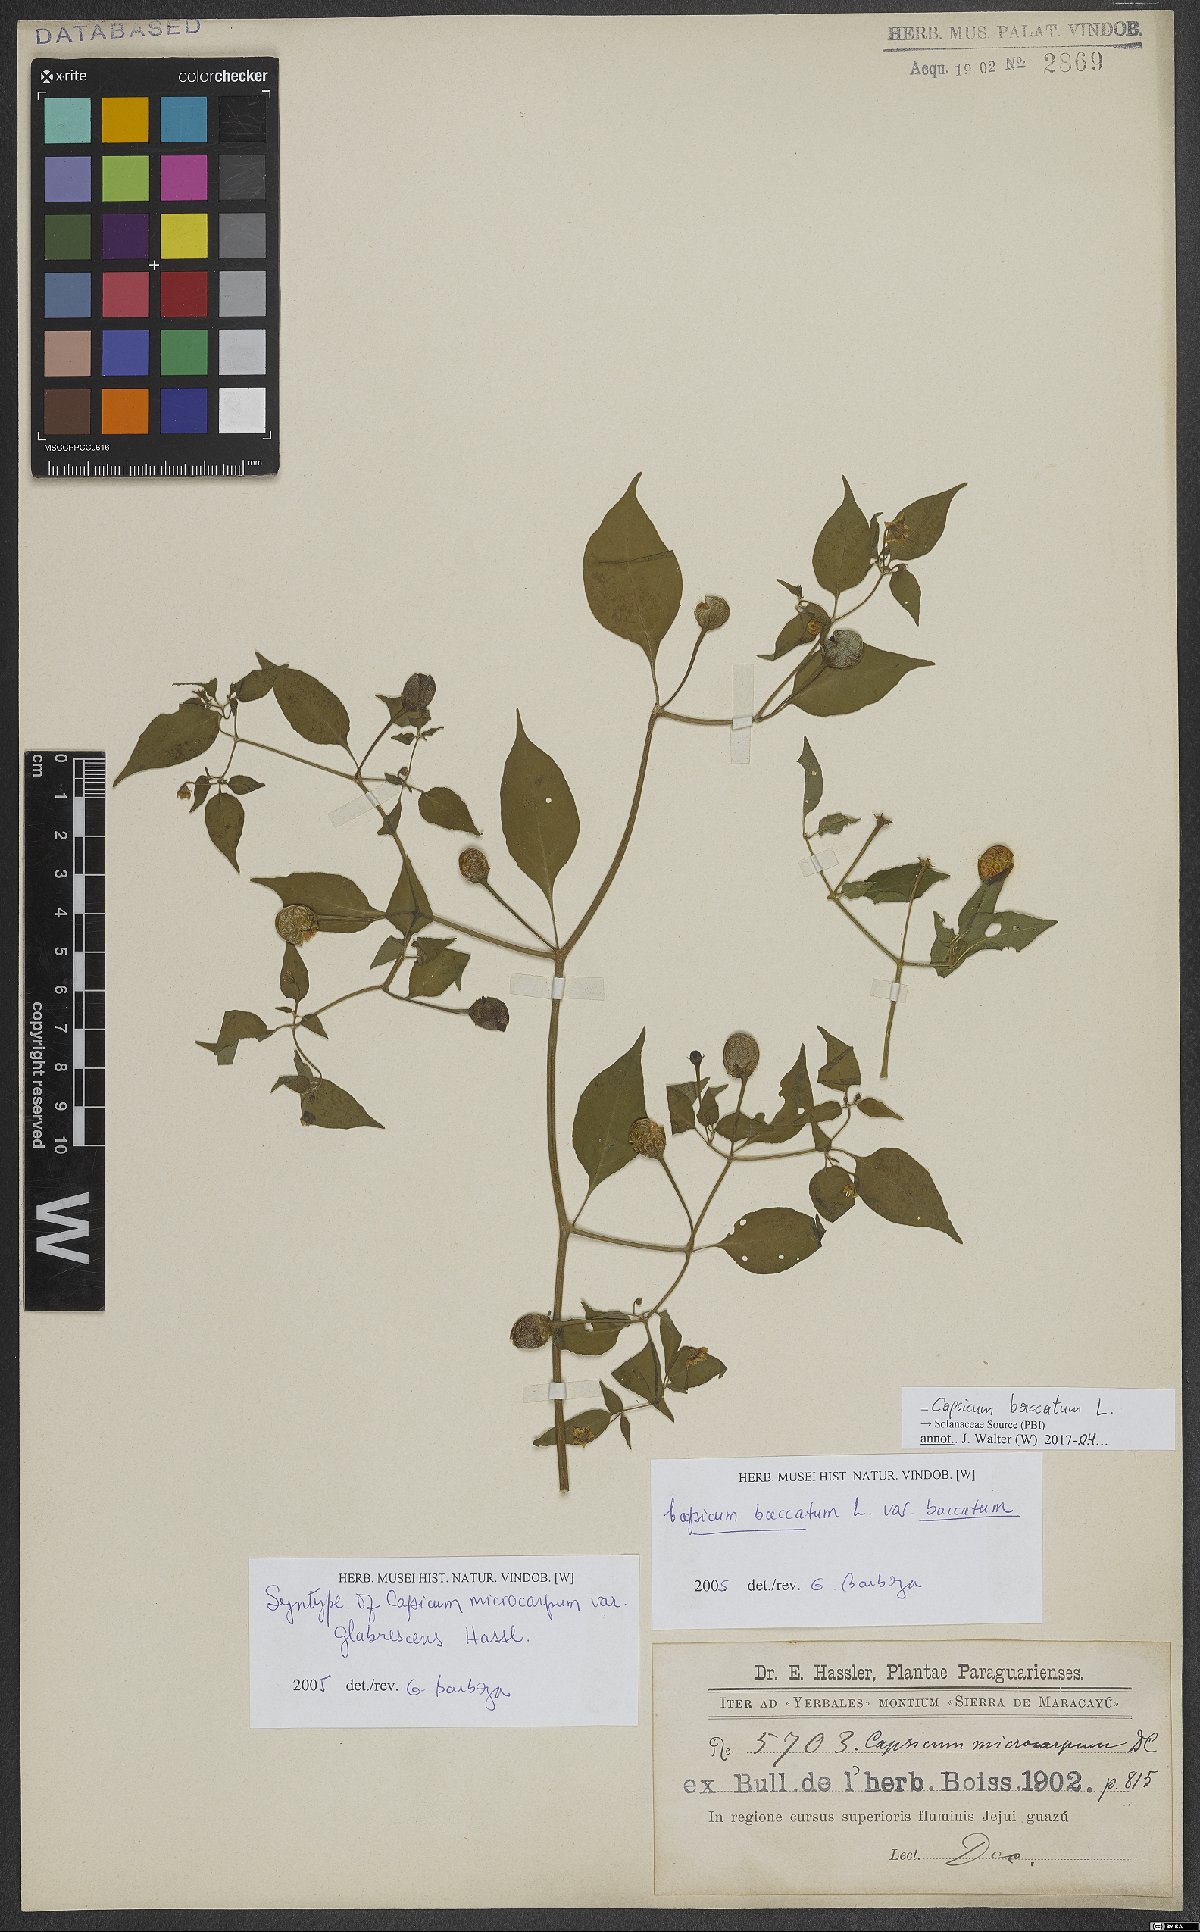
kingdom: Plantae
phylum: Tracheophyta
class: Magnoliopsida
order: Solanales
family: Solanaceae
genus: Capsicum
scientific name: Capsicum baccatum
